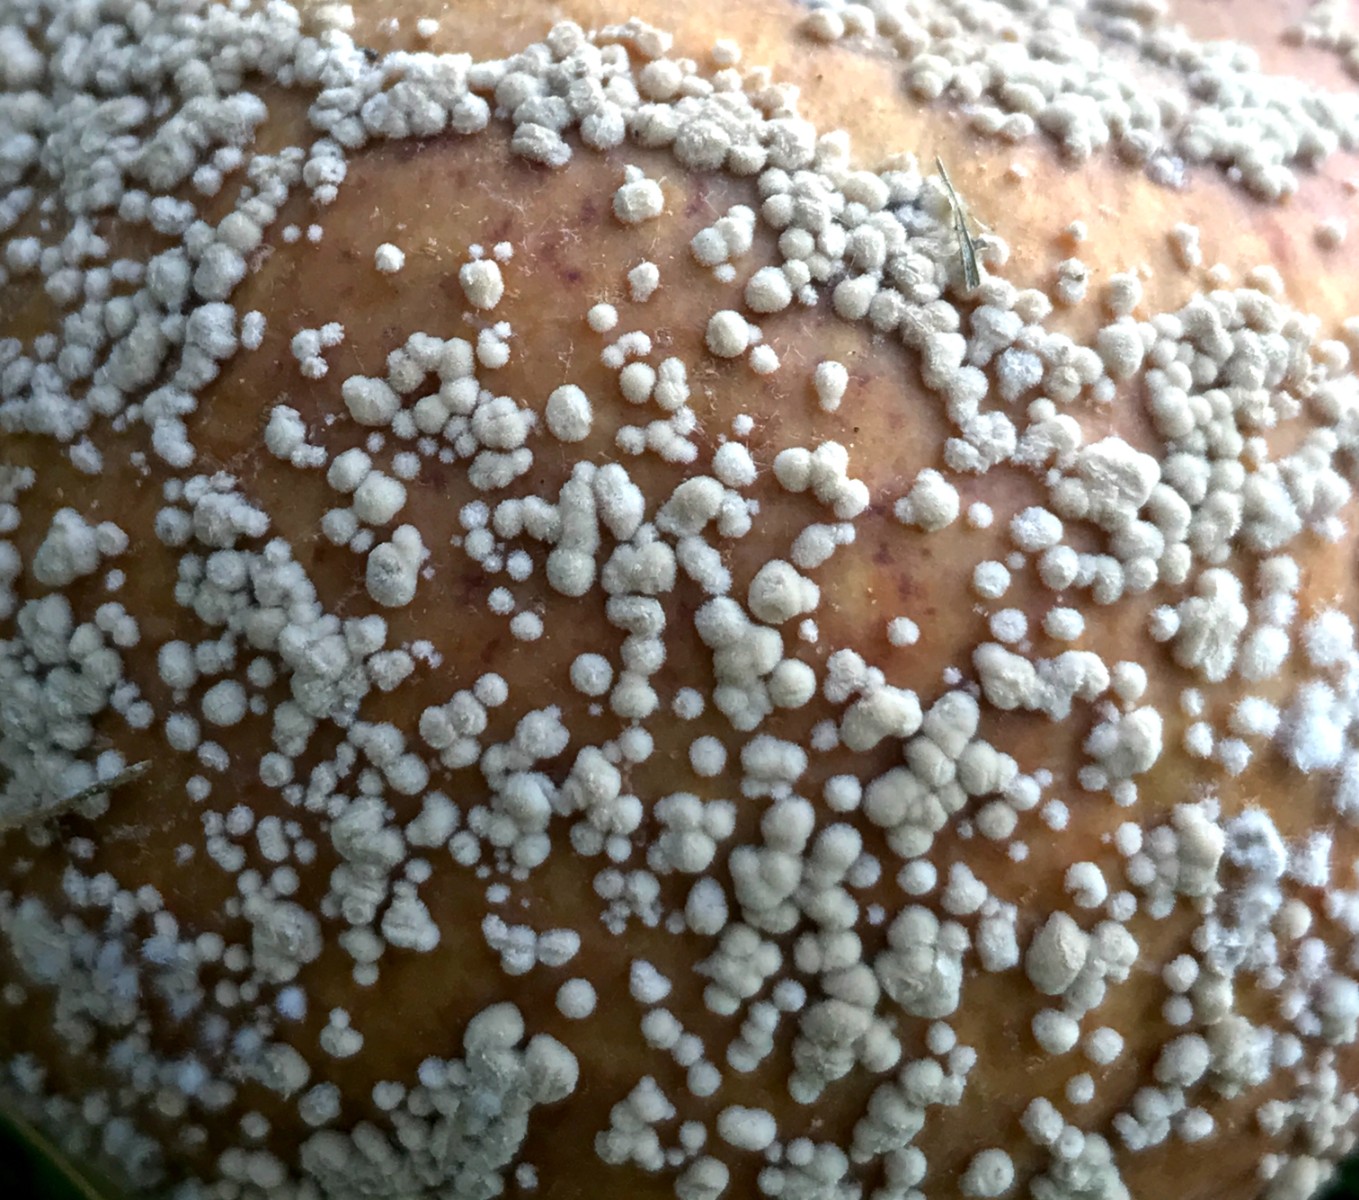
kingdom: Fungi
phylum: Ascomycota
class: Leotiomycetes
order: Helotiales
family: Sclerotiniaceae
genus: Monilinia
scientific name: Monilinia fructigena
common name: æble-knoldskive
